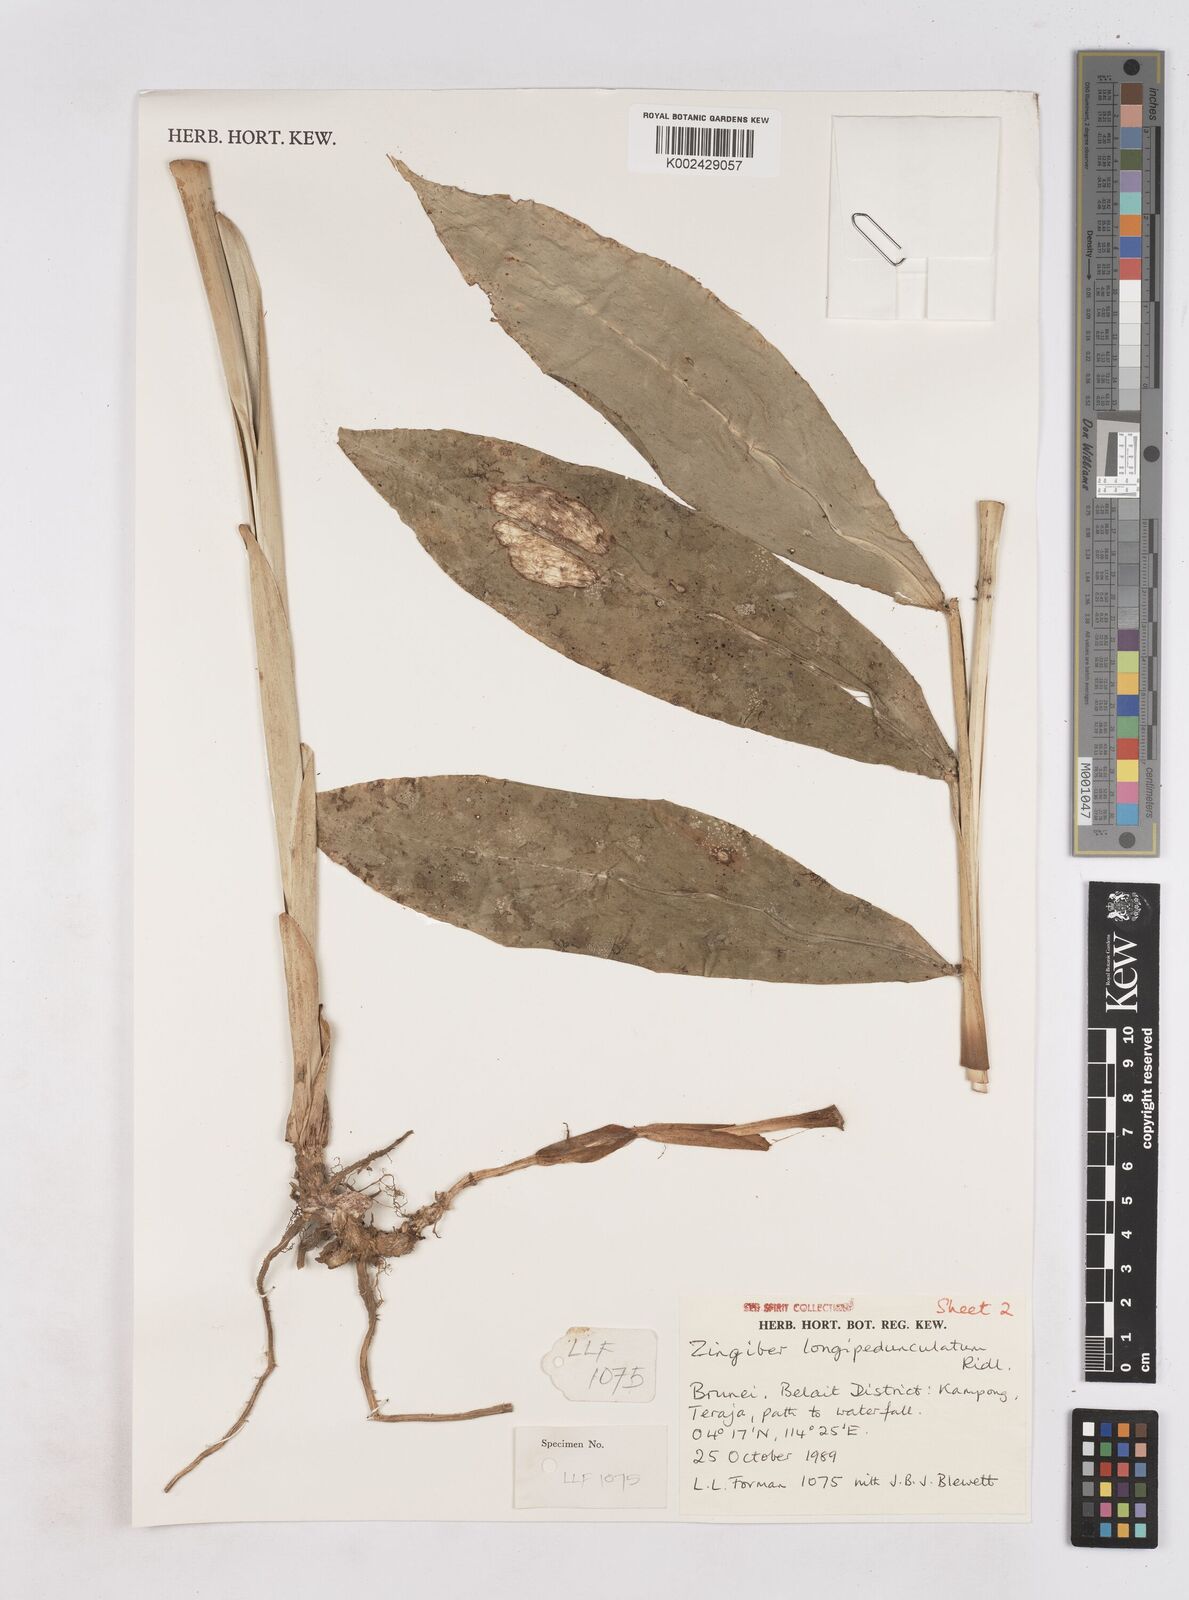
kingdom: Plantae
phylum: Tracheophyta
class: Liliopsida
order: Zingiberales
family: Zingiberaceae
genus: Zingiber
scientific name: Zingiber longipedunculatum
